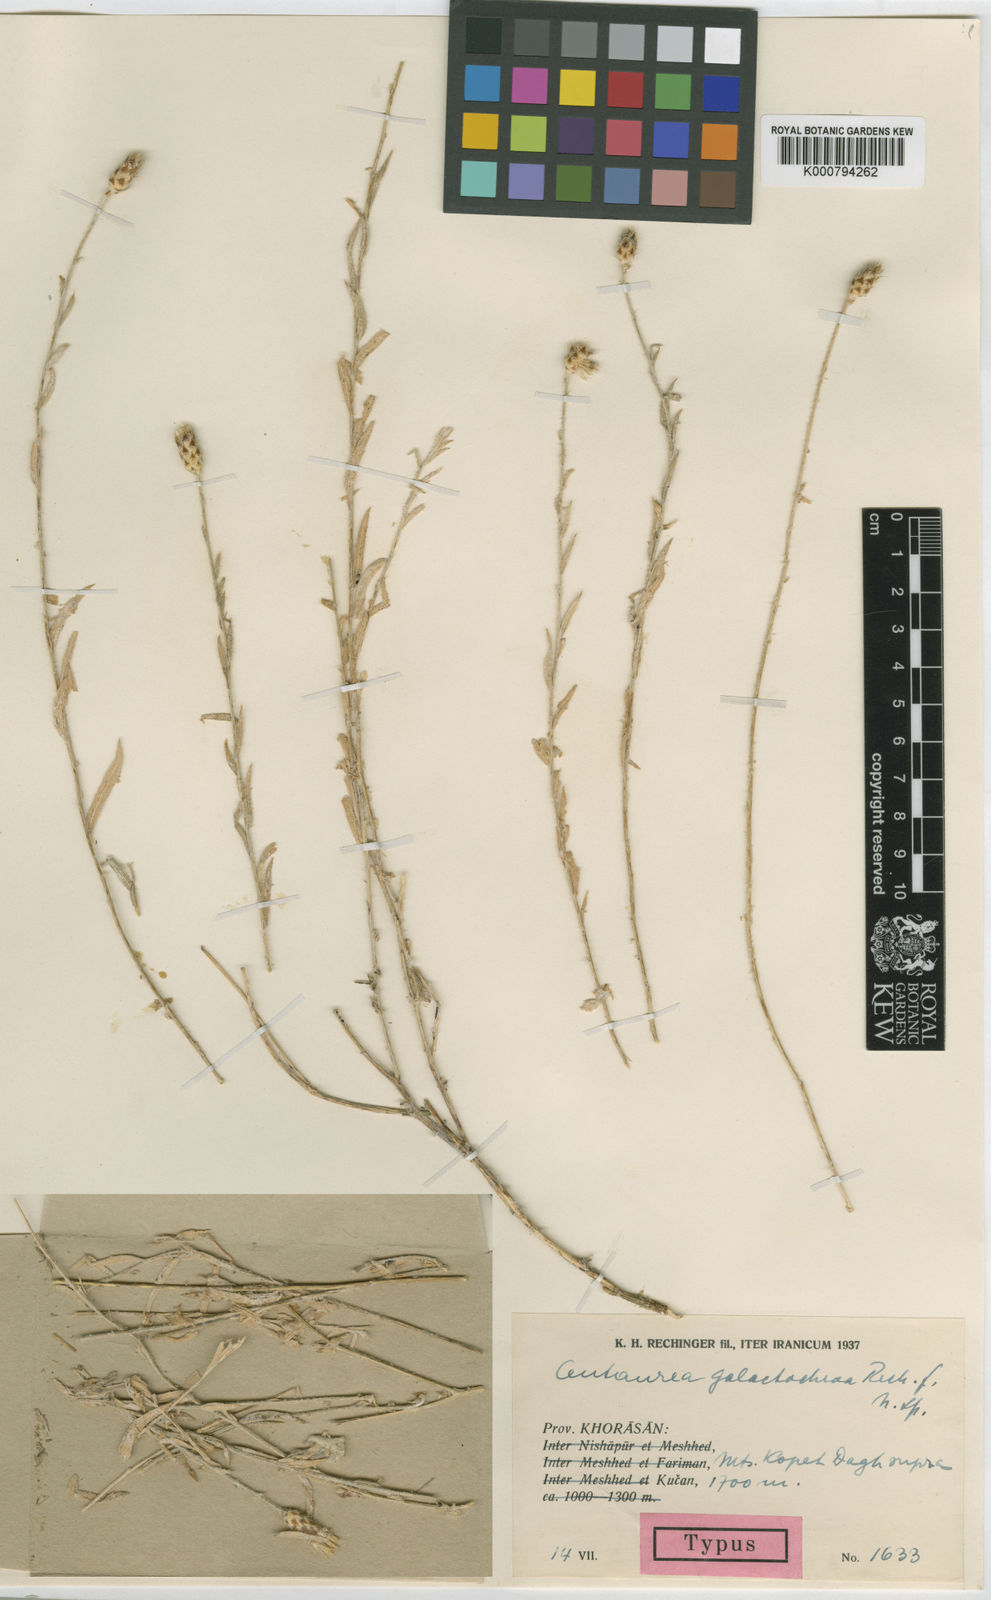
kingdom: Plantae
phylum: Tracheophyta
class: Magnoliopsida
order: Asterales
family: Asteraceae
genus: Psephellus
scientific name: Psephellus galactochroa
